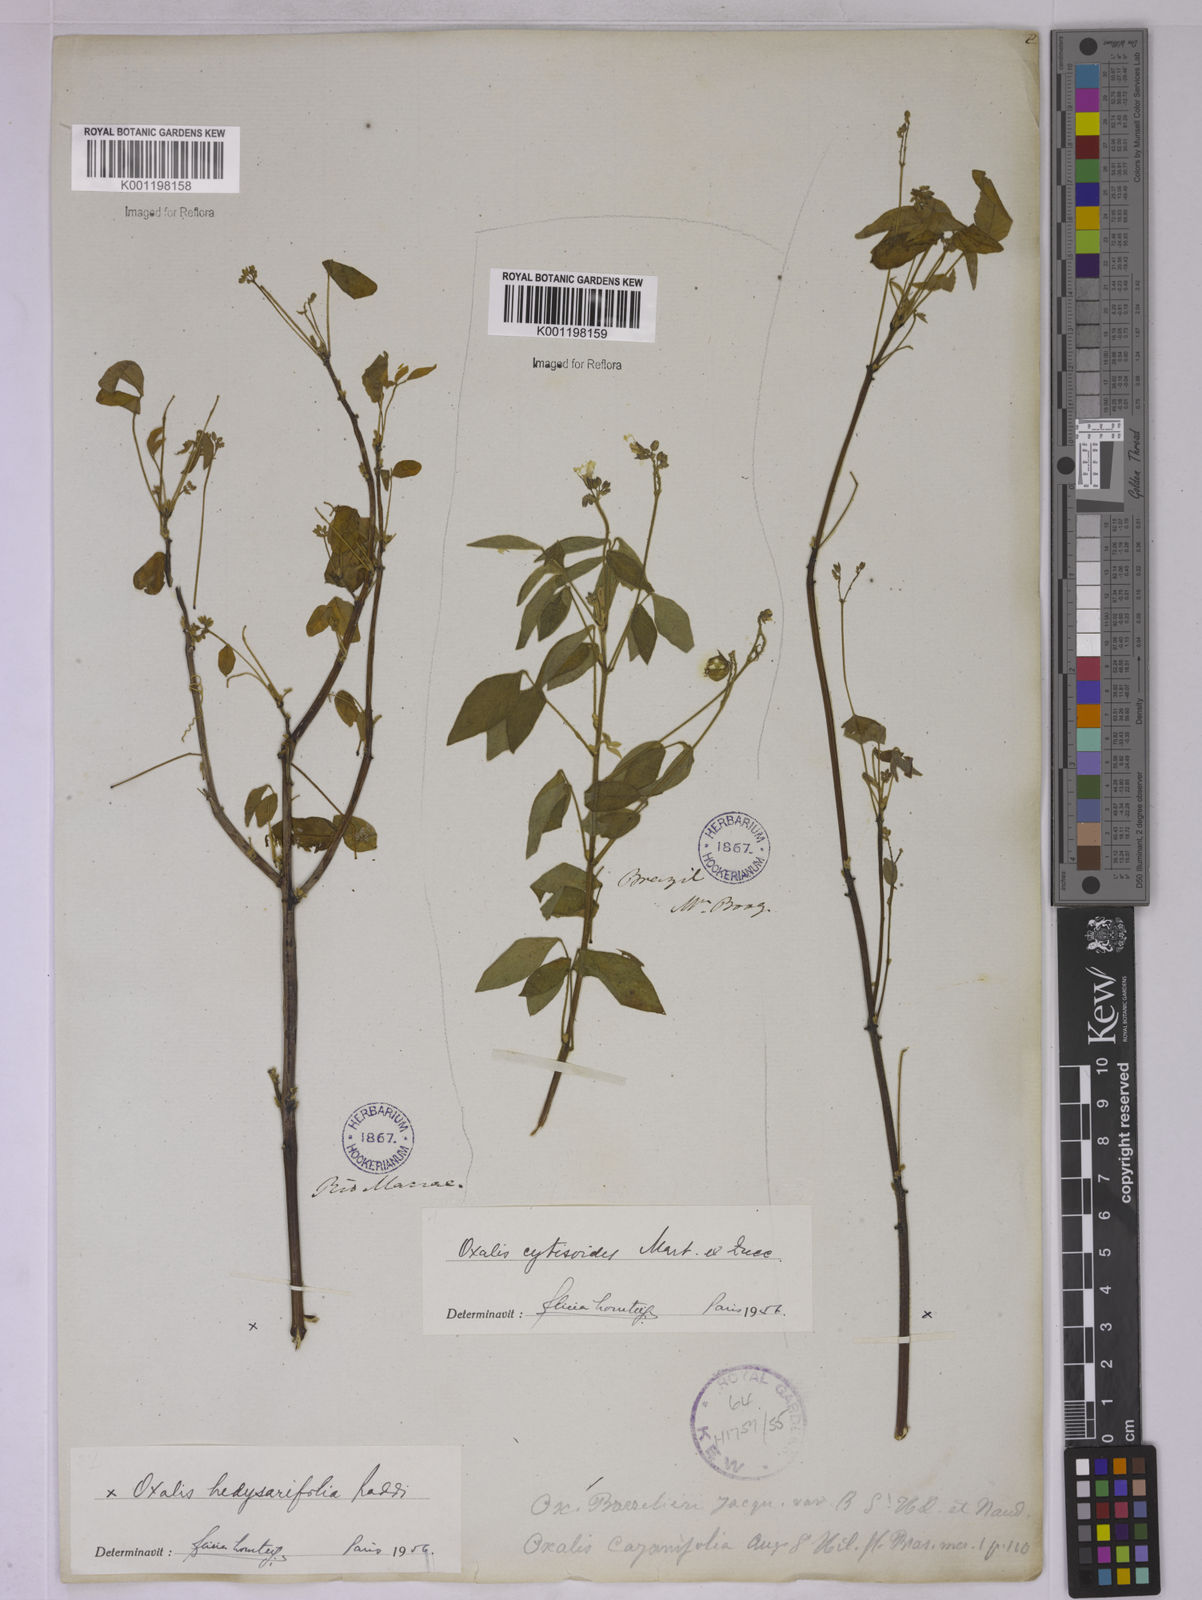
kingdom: Plantae
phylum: Tracheophyta
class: Magnoliopsida
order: Oxalidales
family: Oxalidaceae
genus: Oxalis
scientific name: Oxalis frutescens
